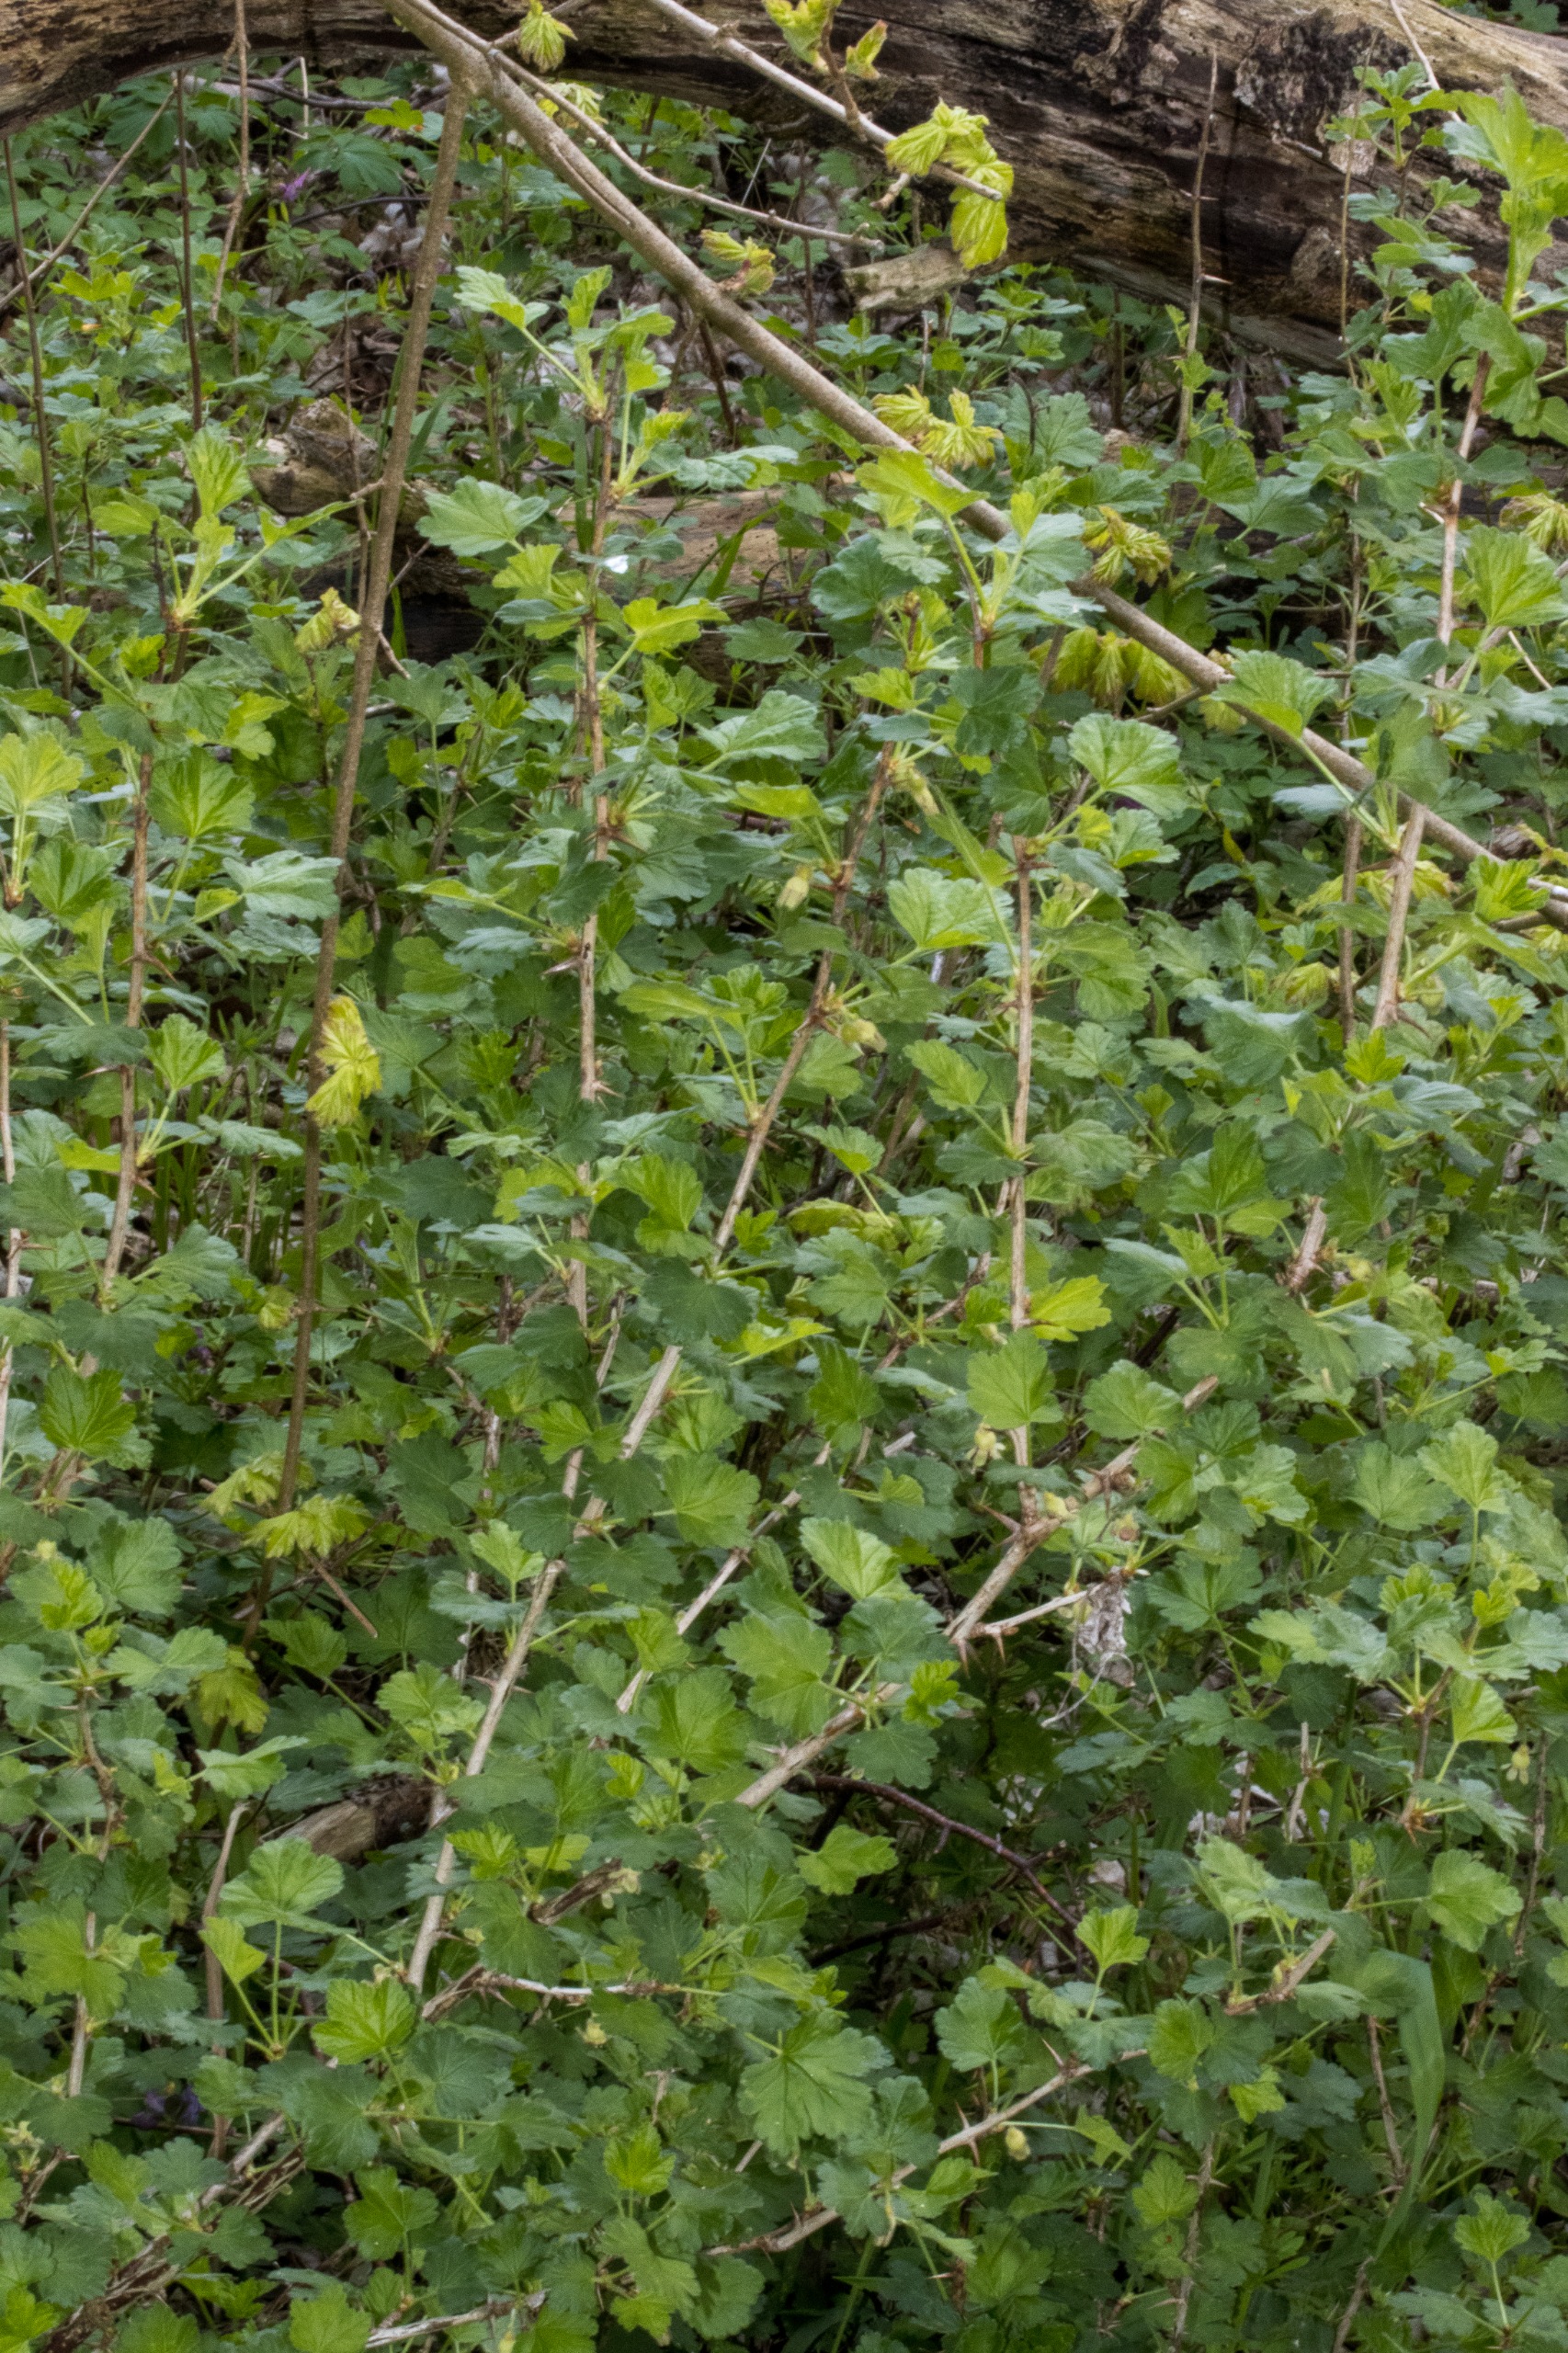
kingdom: Plantae
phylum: Tracheophyta
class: Magnoliopsida
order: Saxifragales
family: Grossulariaceae
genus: Ribes
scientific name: Ribes uva-crispa
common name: Stikkelsbær
